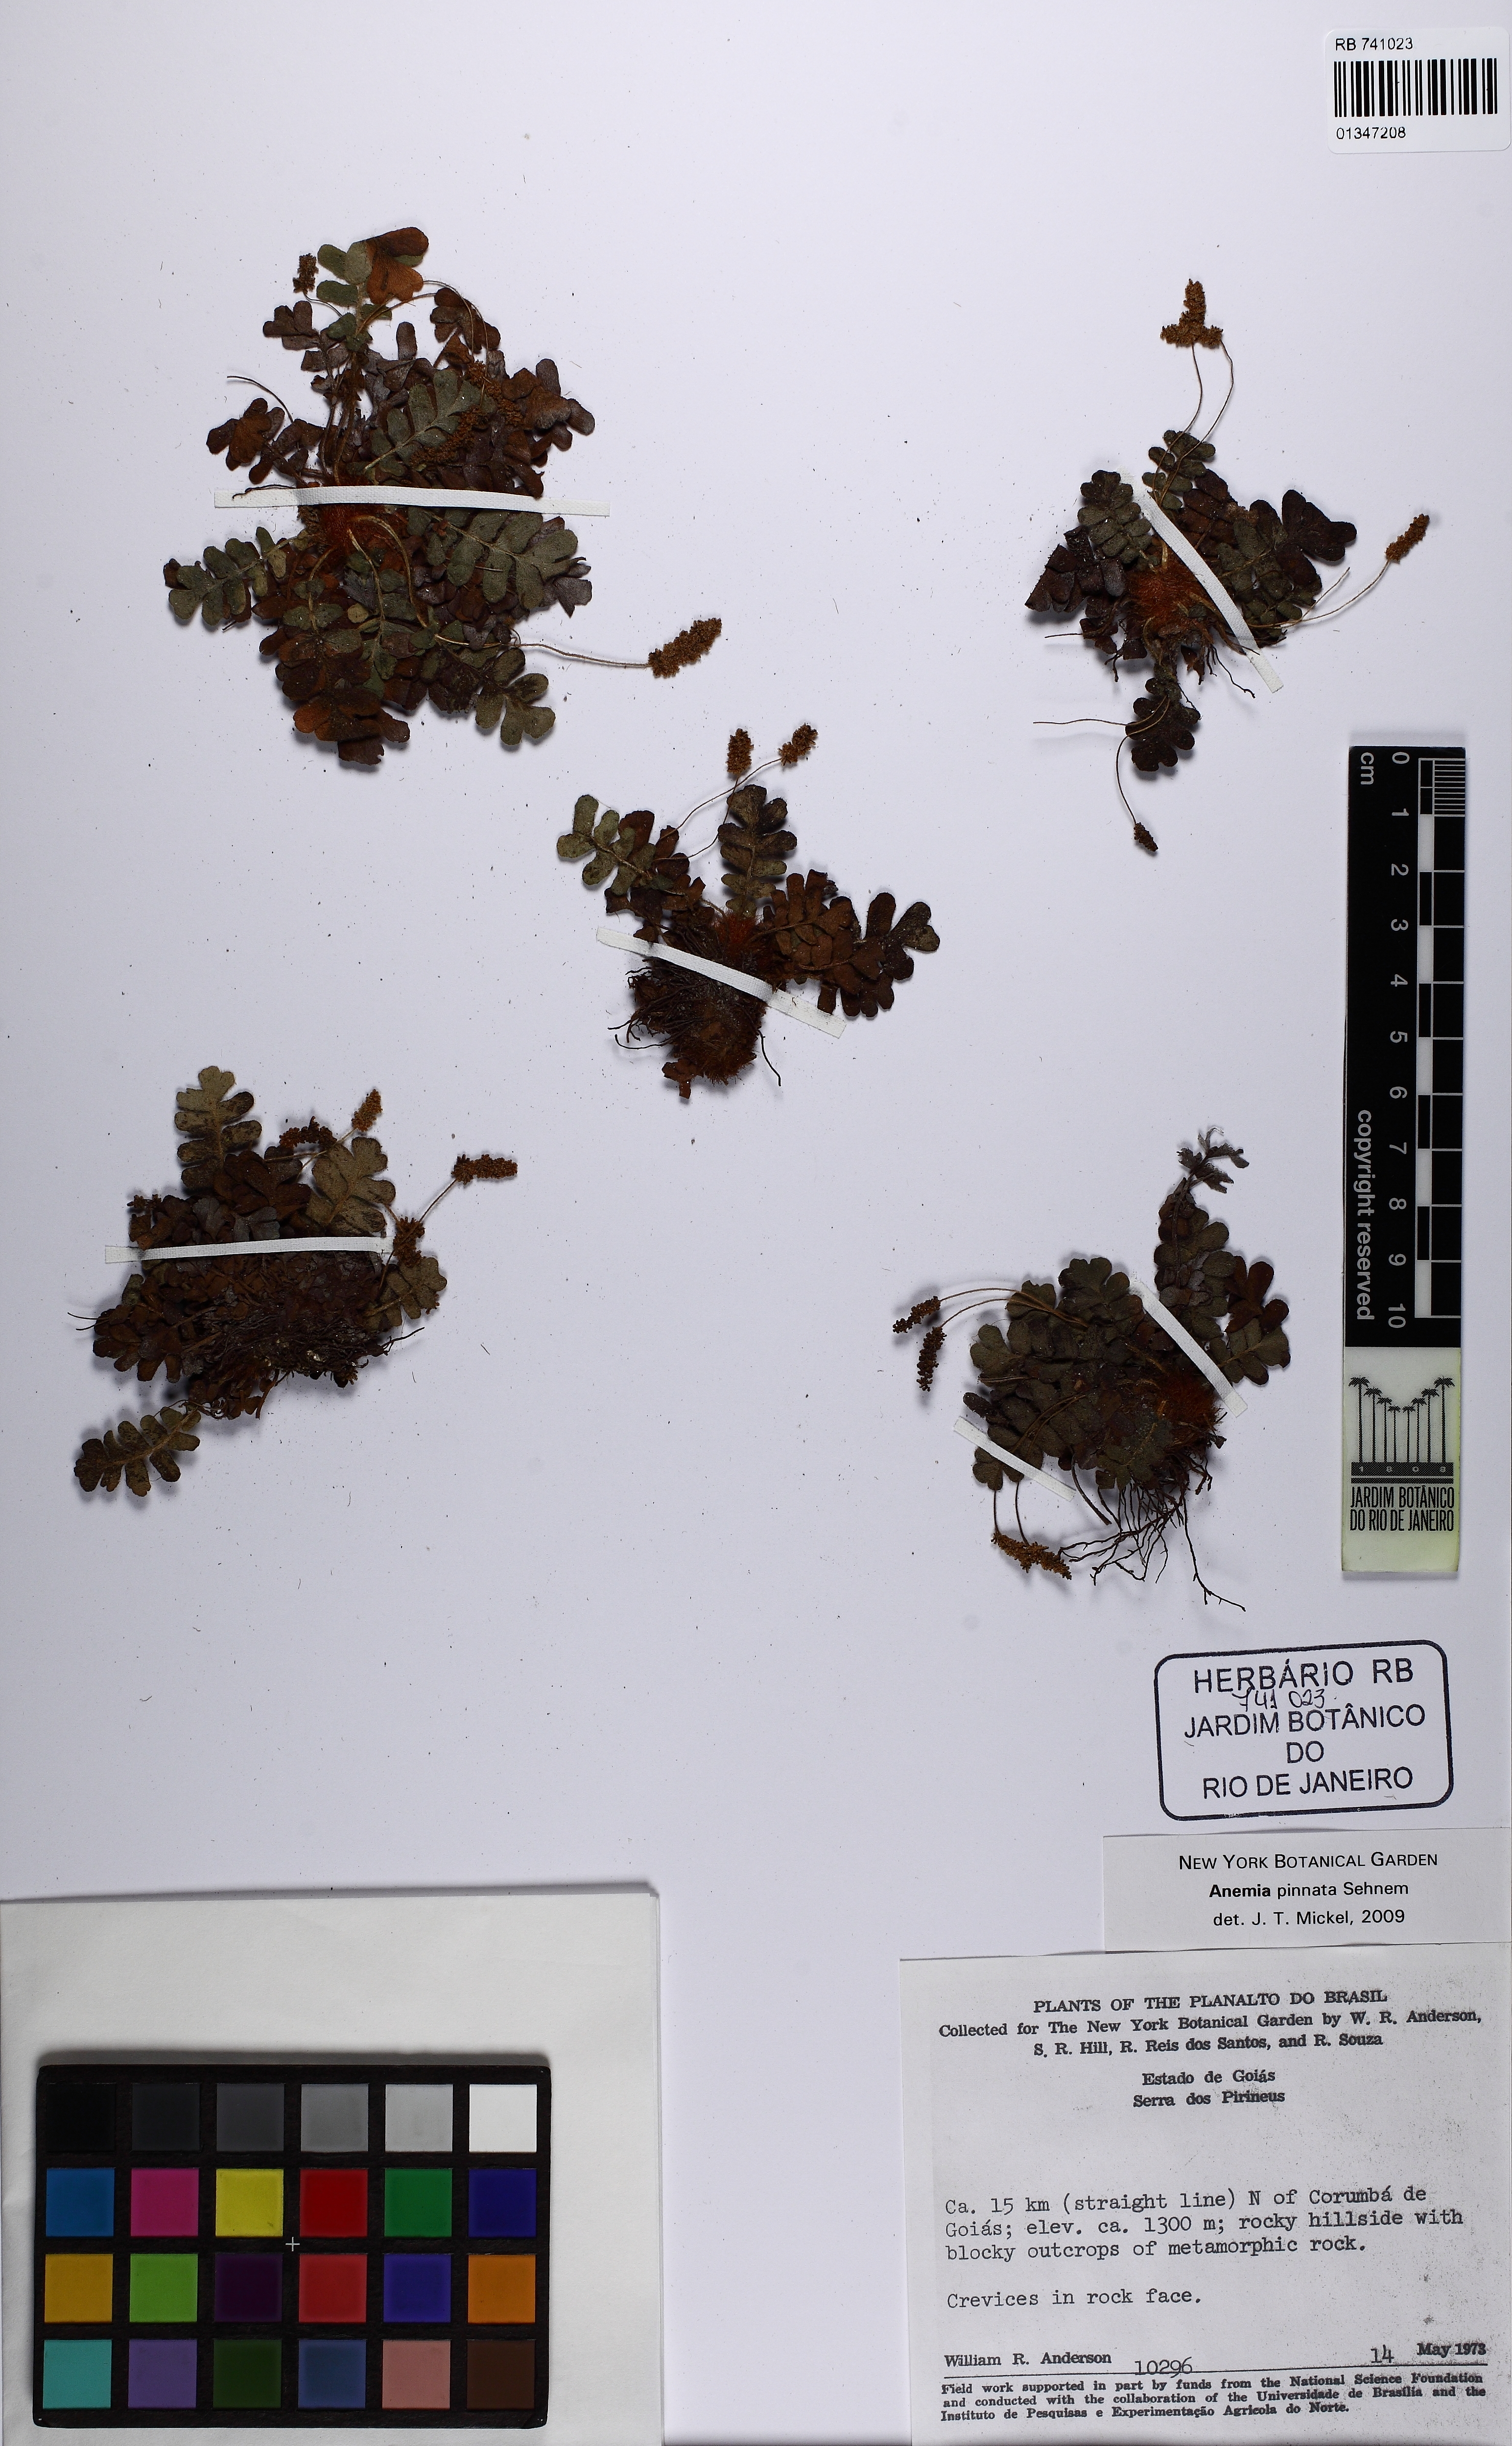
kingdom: Plantae
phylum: Tracheophyta
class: Polypodiopsida
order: Schizaeales
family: Anemiaceae
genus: Anemia
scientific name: Anemia pinnata
